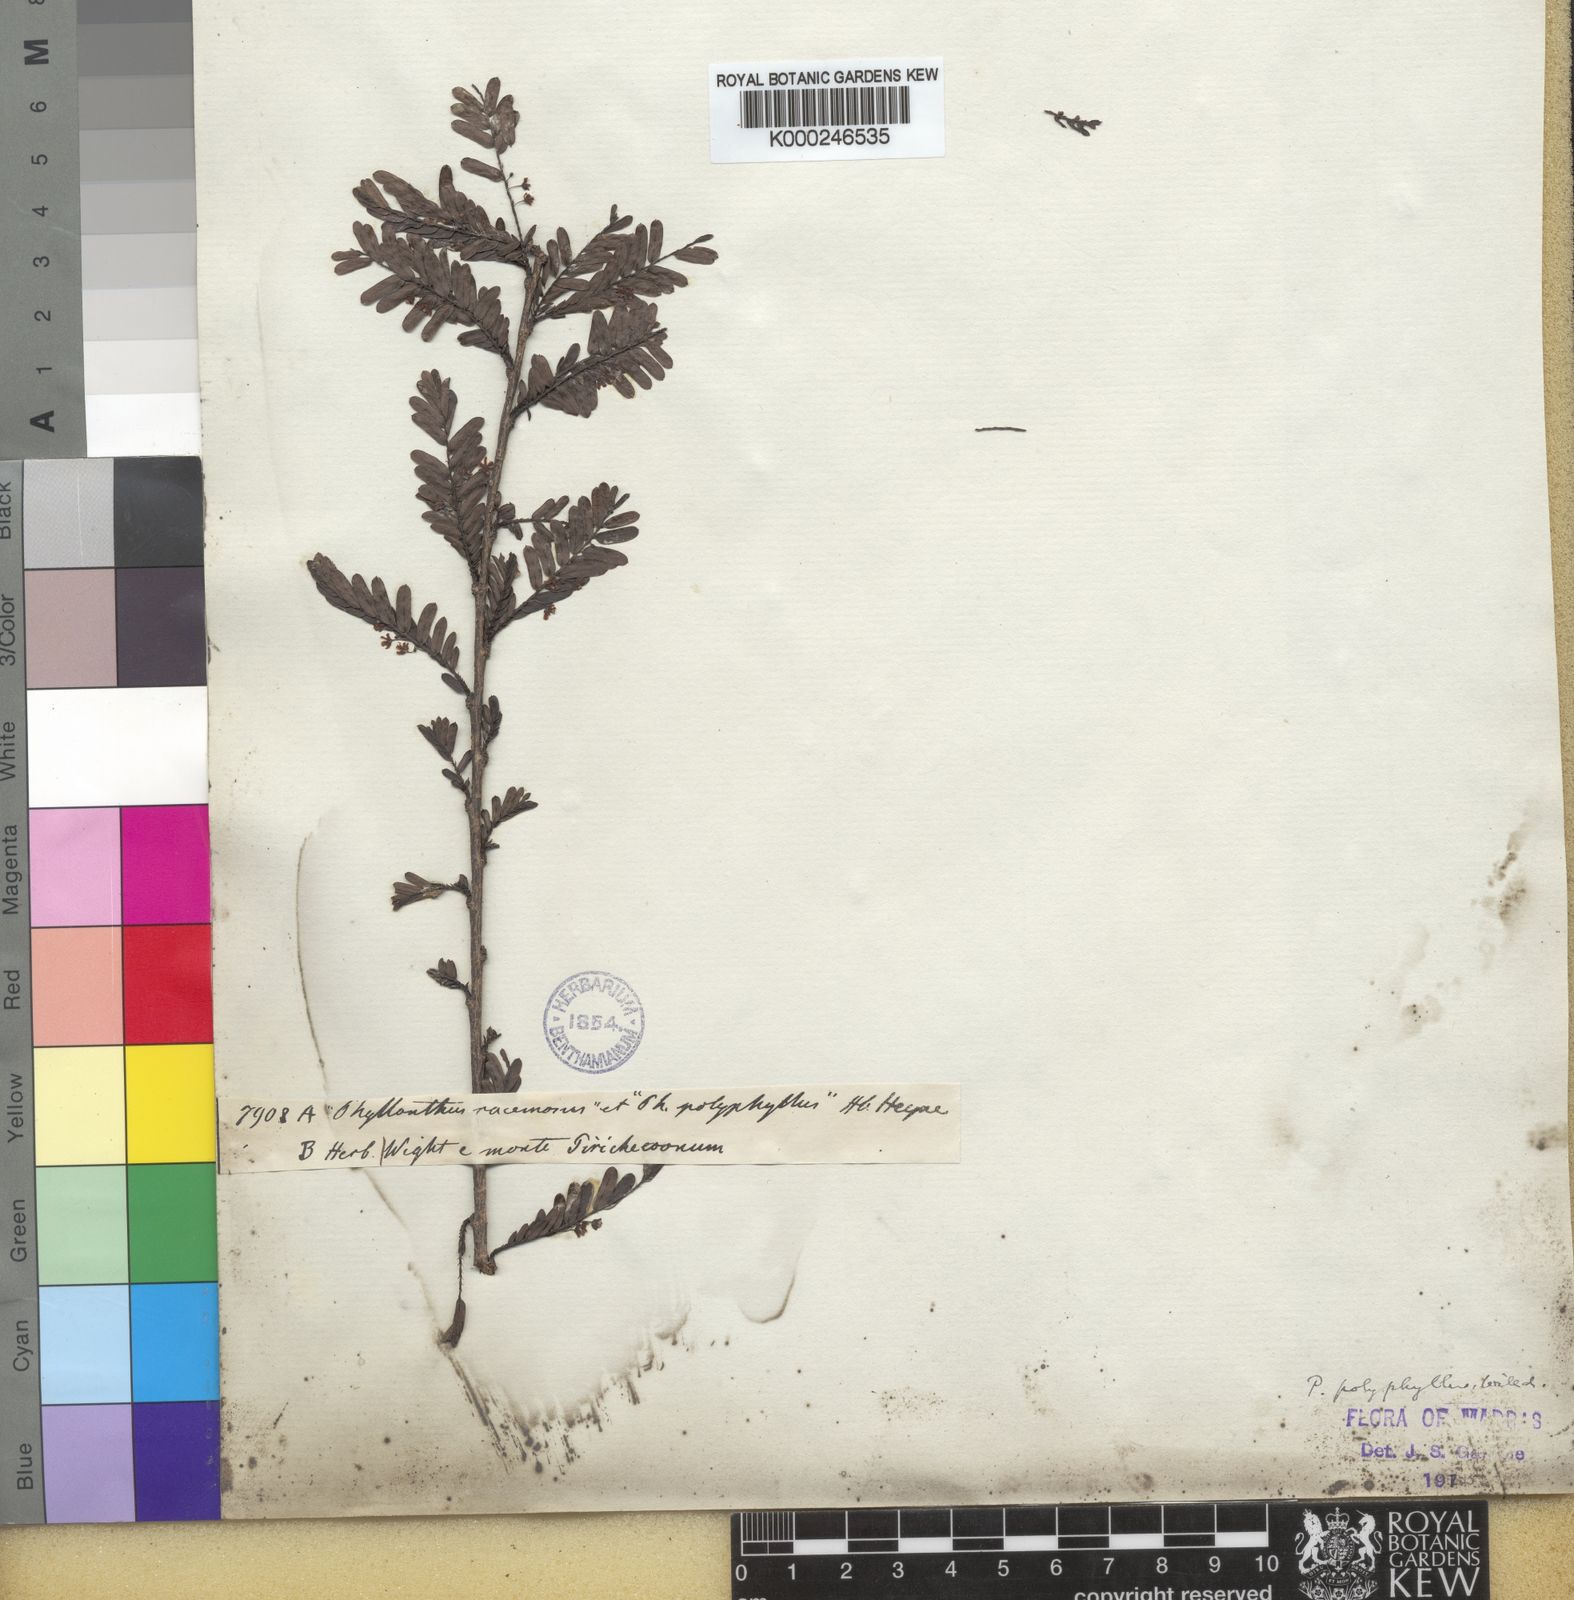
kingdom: Plantae
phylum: Tracheophyta
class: Magnoliopsida
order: Malpighiales
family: Phyllanthaceae
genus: Phyllanthus
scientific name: Phyllanthus racemosus
